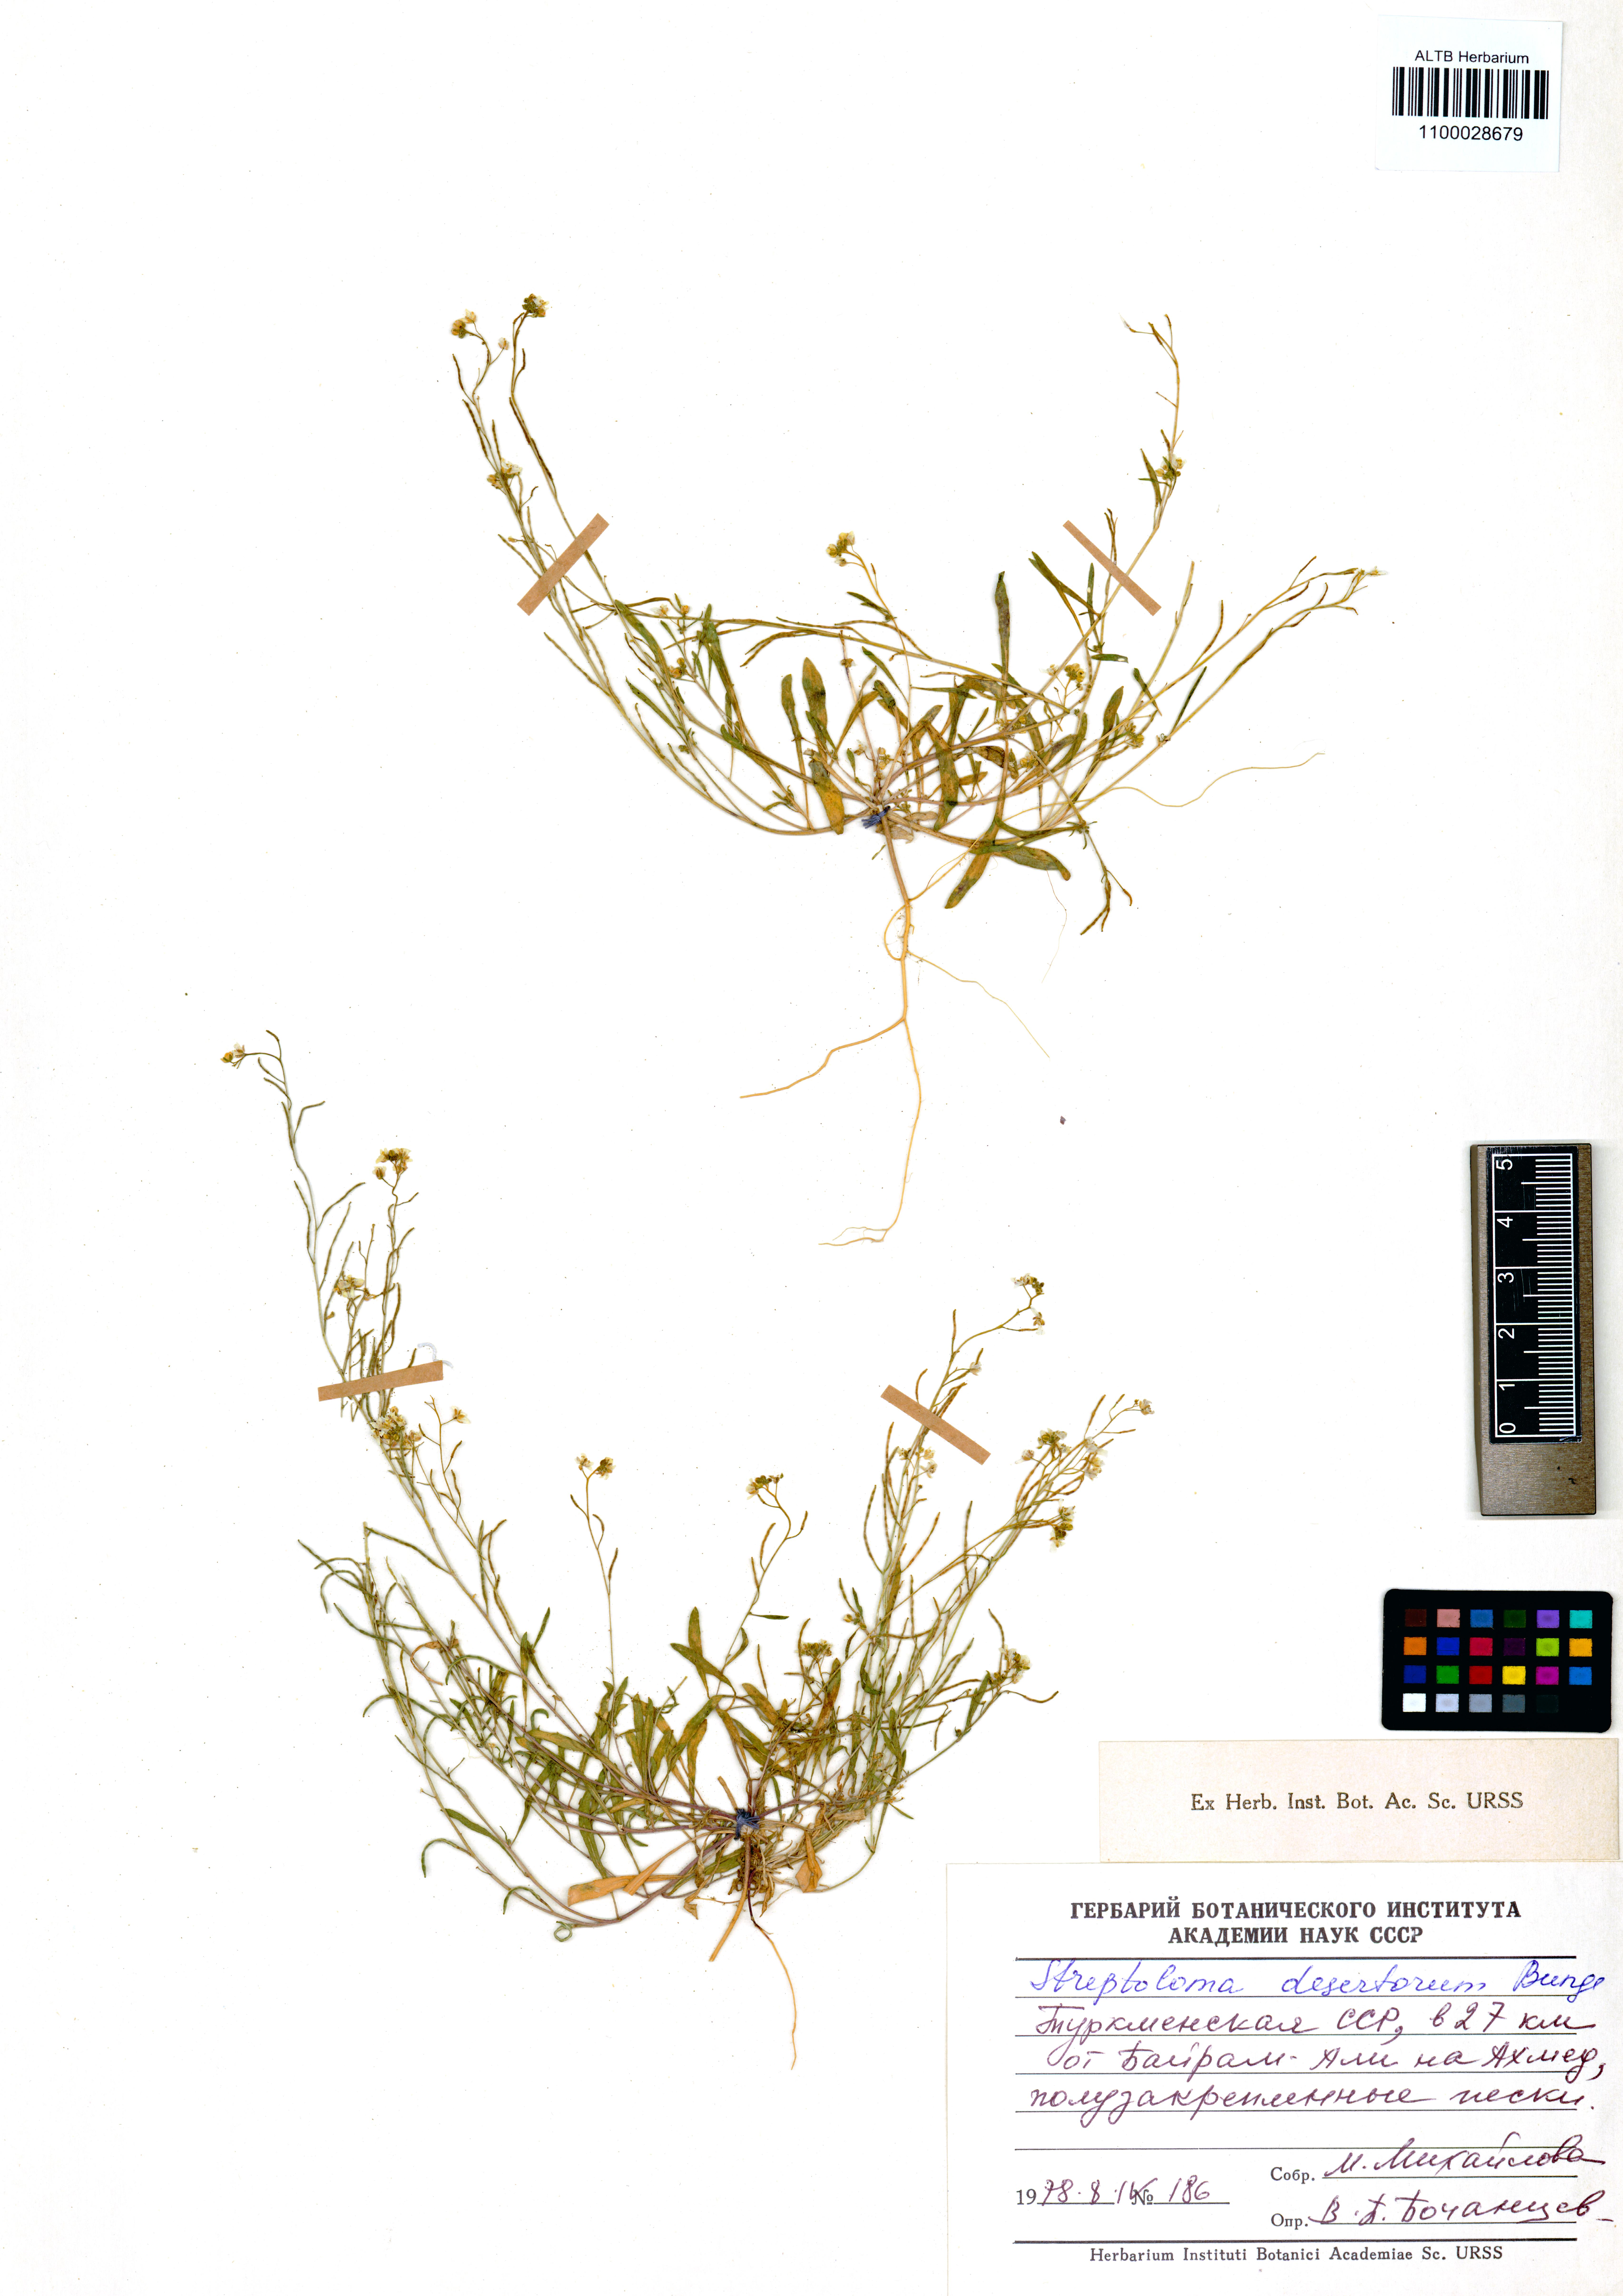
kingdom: Plantae
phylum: Tracheophyta
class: Magnoliopsida
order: Brassicales
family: Brassicaceae
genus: Streptoloma
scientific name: Streptoloma desertorum
